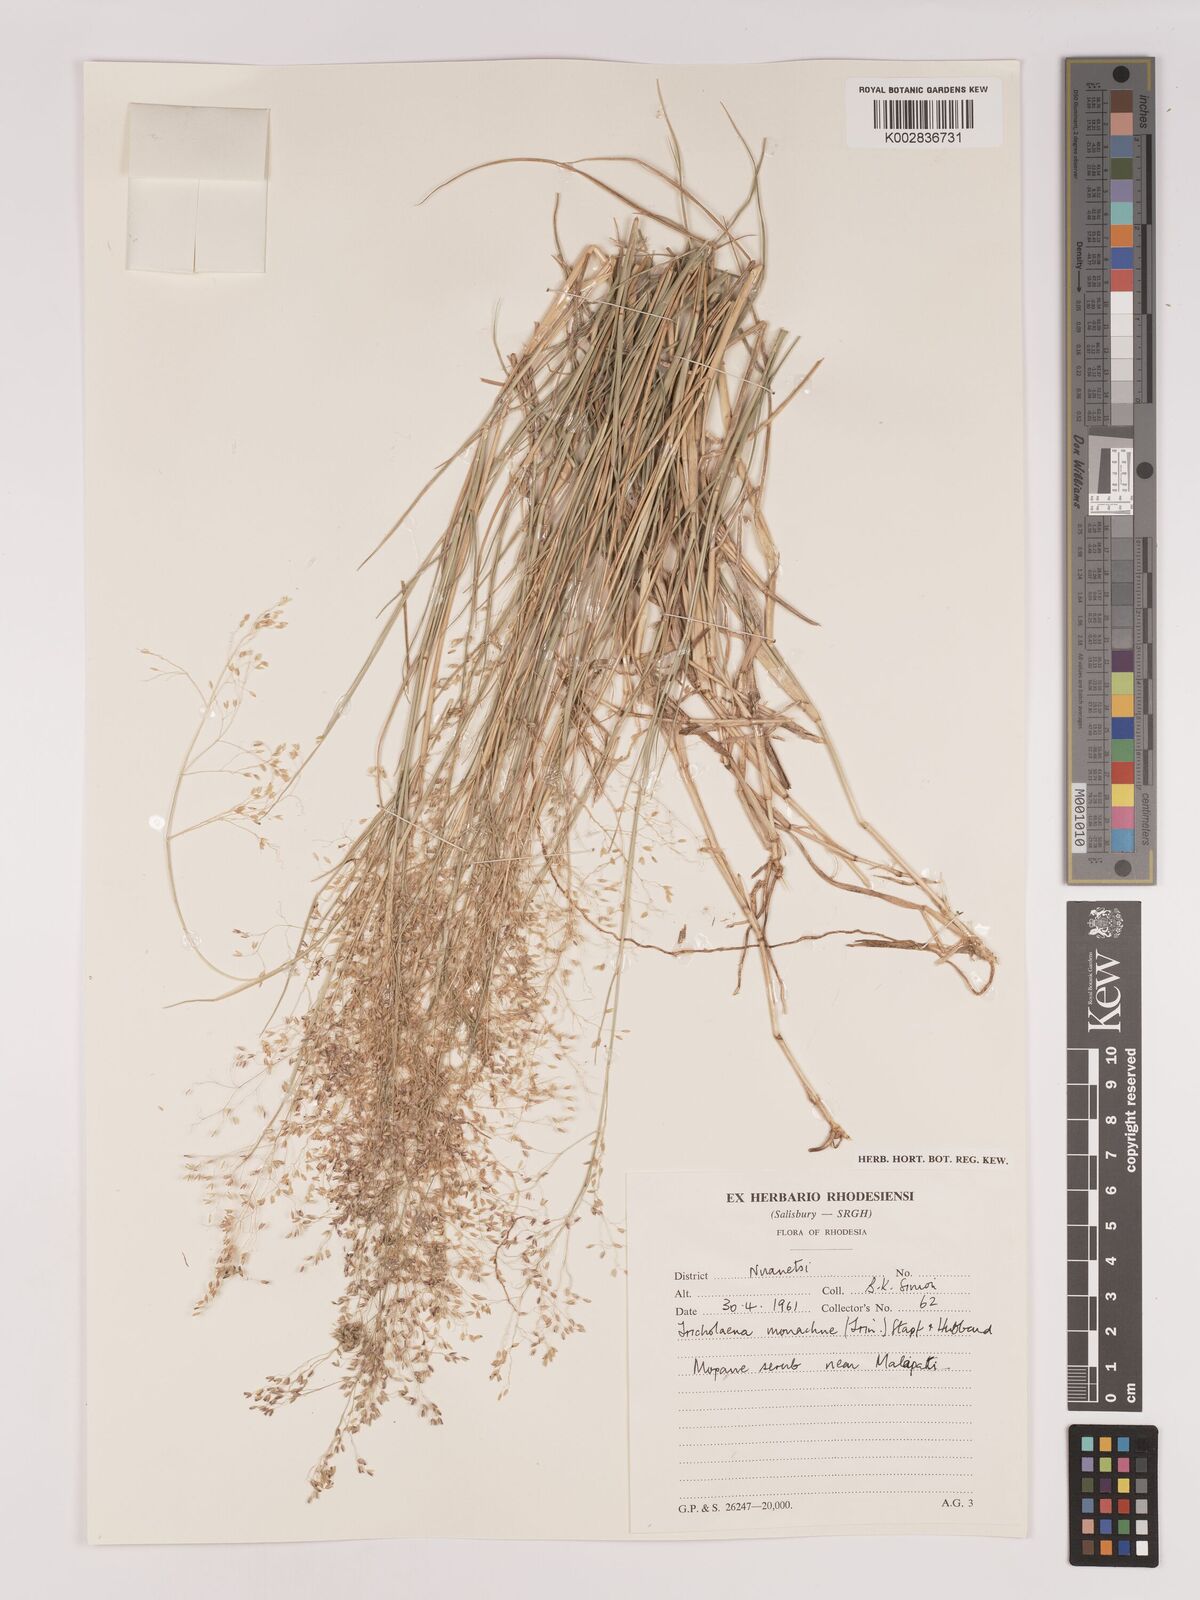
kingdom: Plantae
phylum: Tracheophyta
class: Liliopsida
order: Poales
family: Poaceae
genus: Tricholaena
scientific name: Tricholaena monachne
